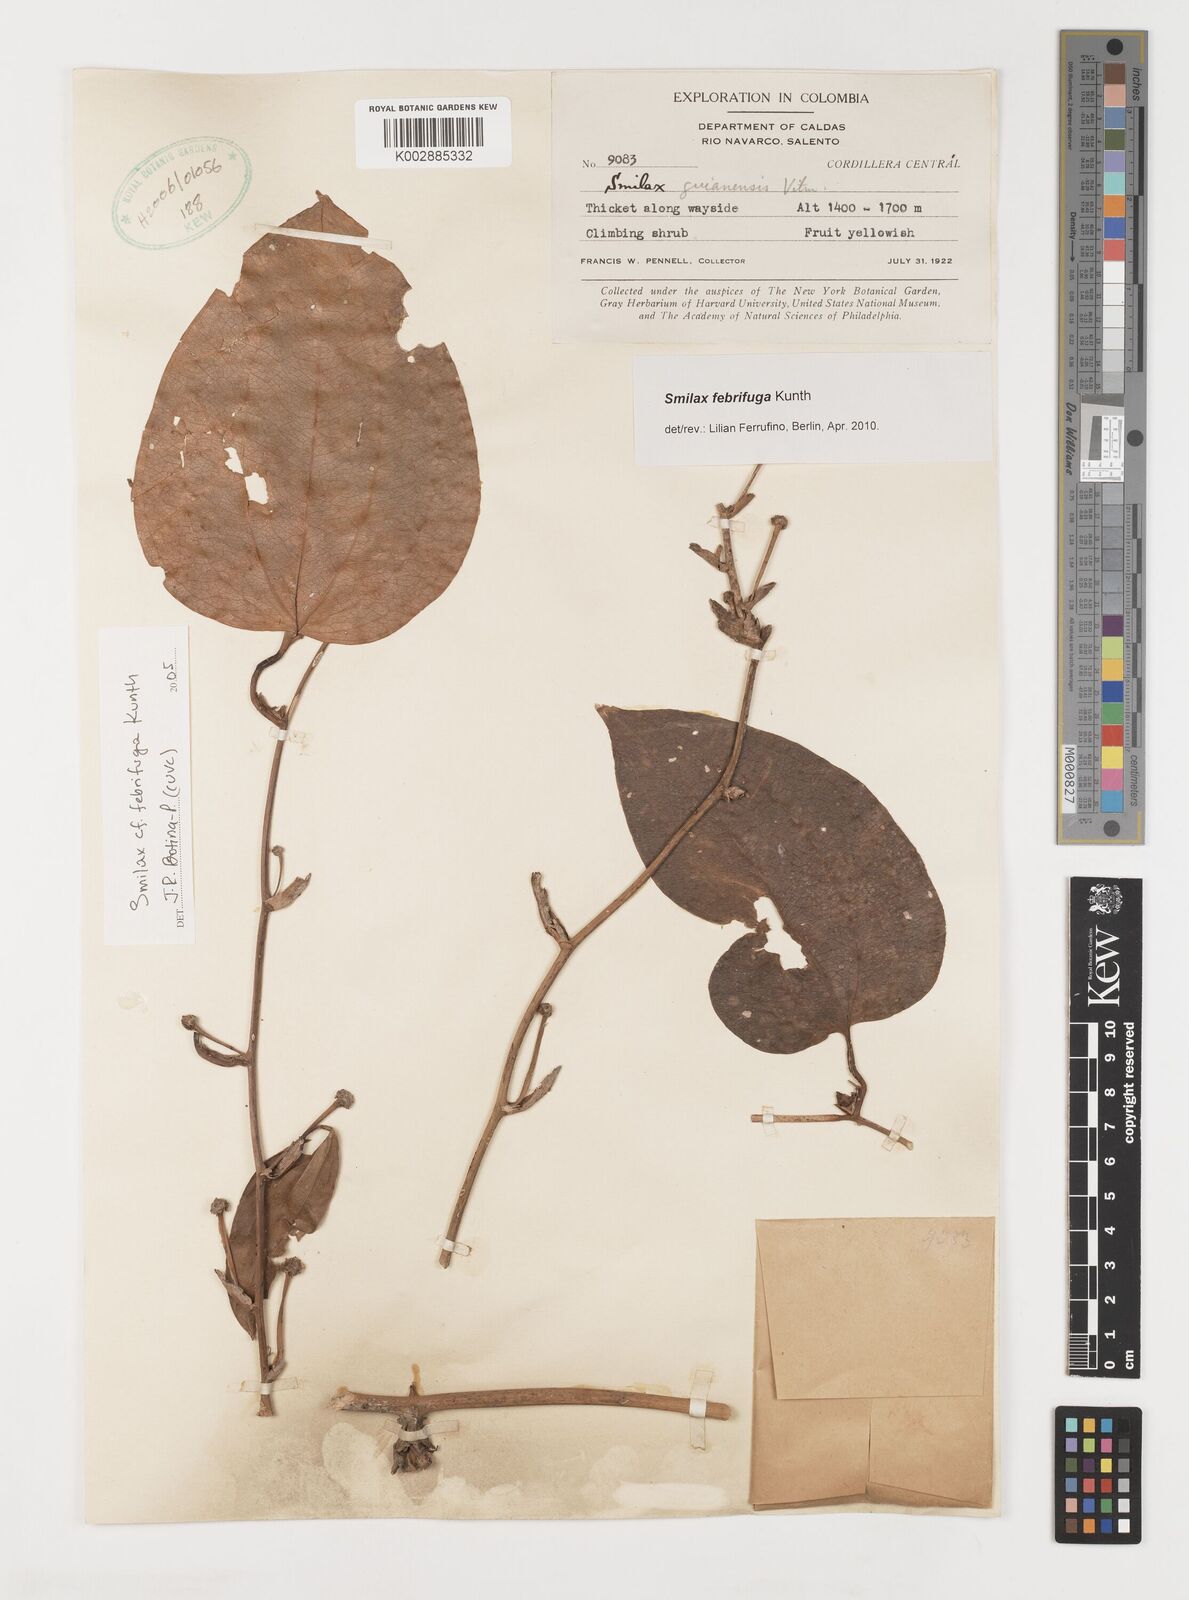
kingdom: Plantae
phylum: Tracheophyta
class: Liliopsida
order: Liliales
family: Smilacaceae
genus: Smilax
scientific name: Smilax purhampuy
